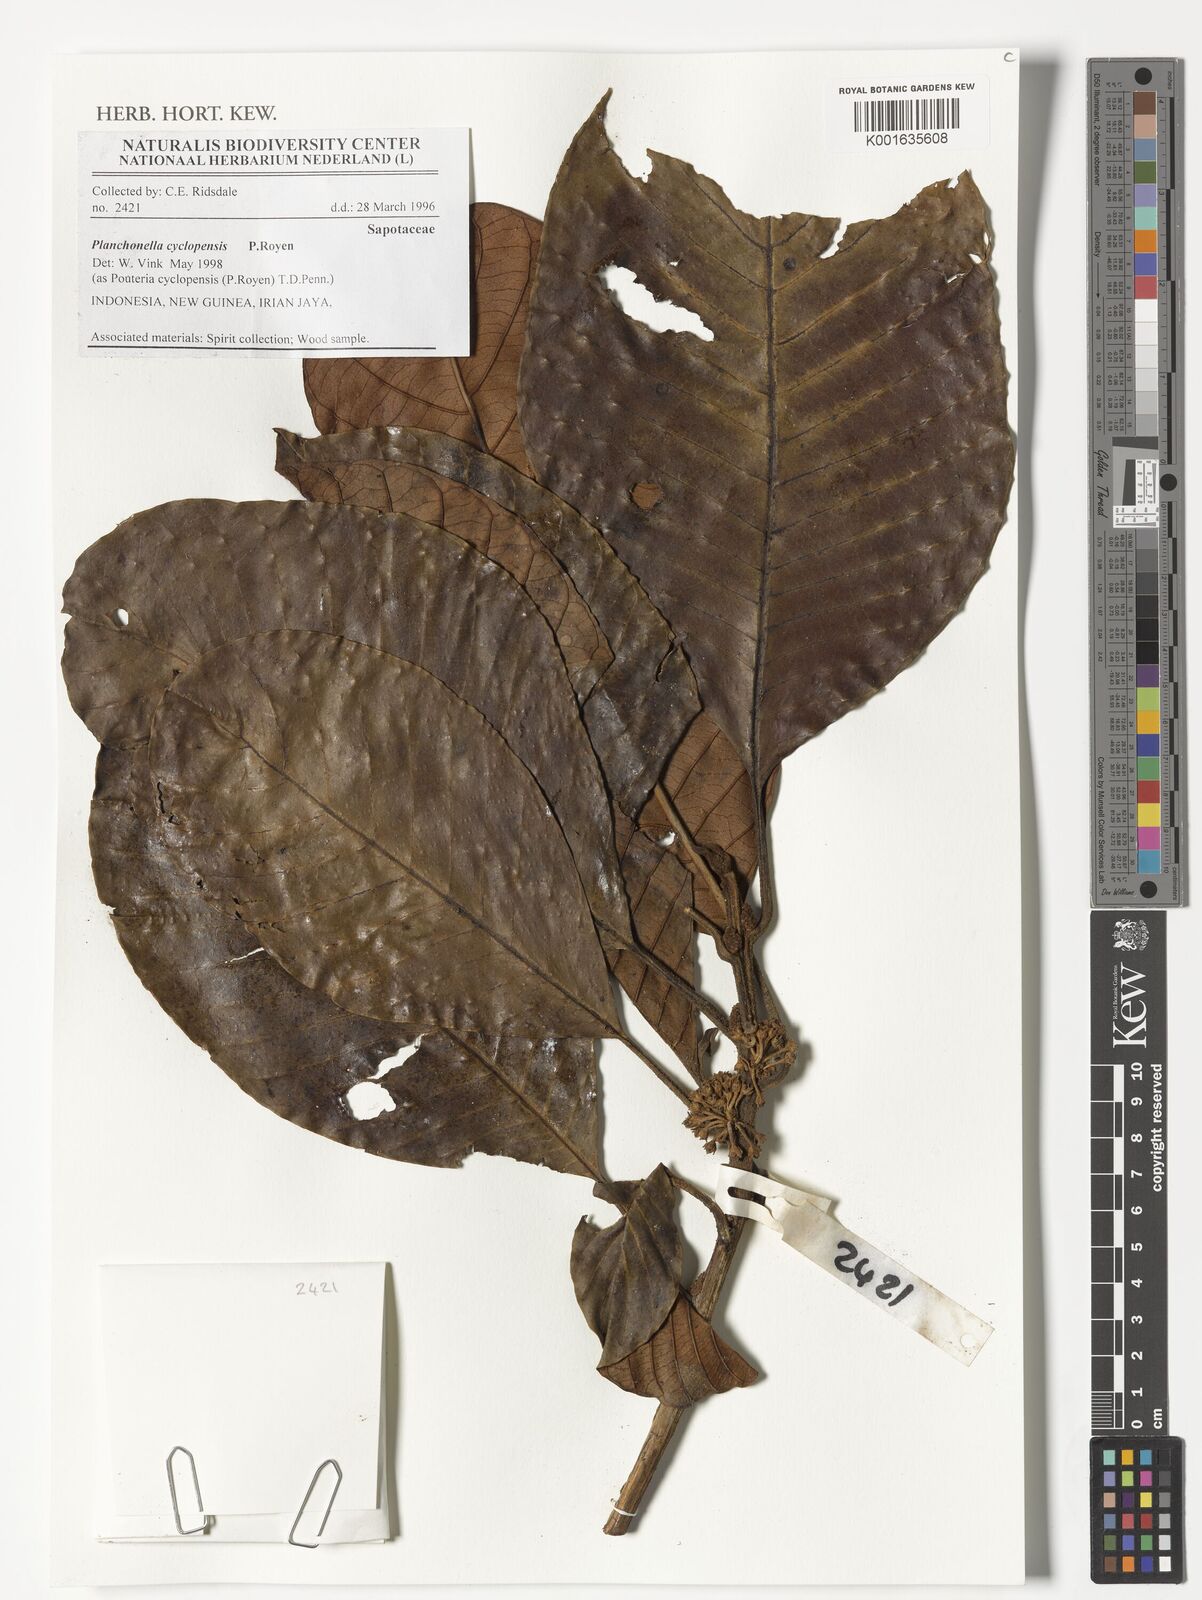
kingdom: Plantae
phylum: Tracheophyta
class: Magnoliopsida
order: Ericales
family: Sapotaceae
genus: Planchonella
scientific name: Planchonella cyclopensis
